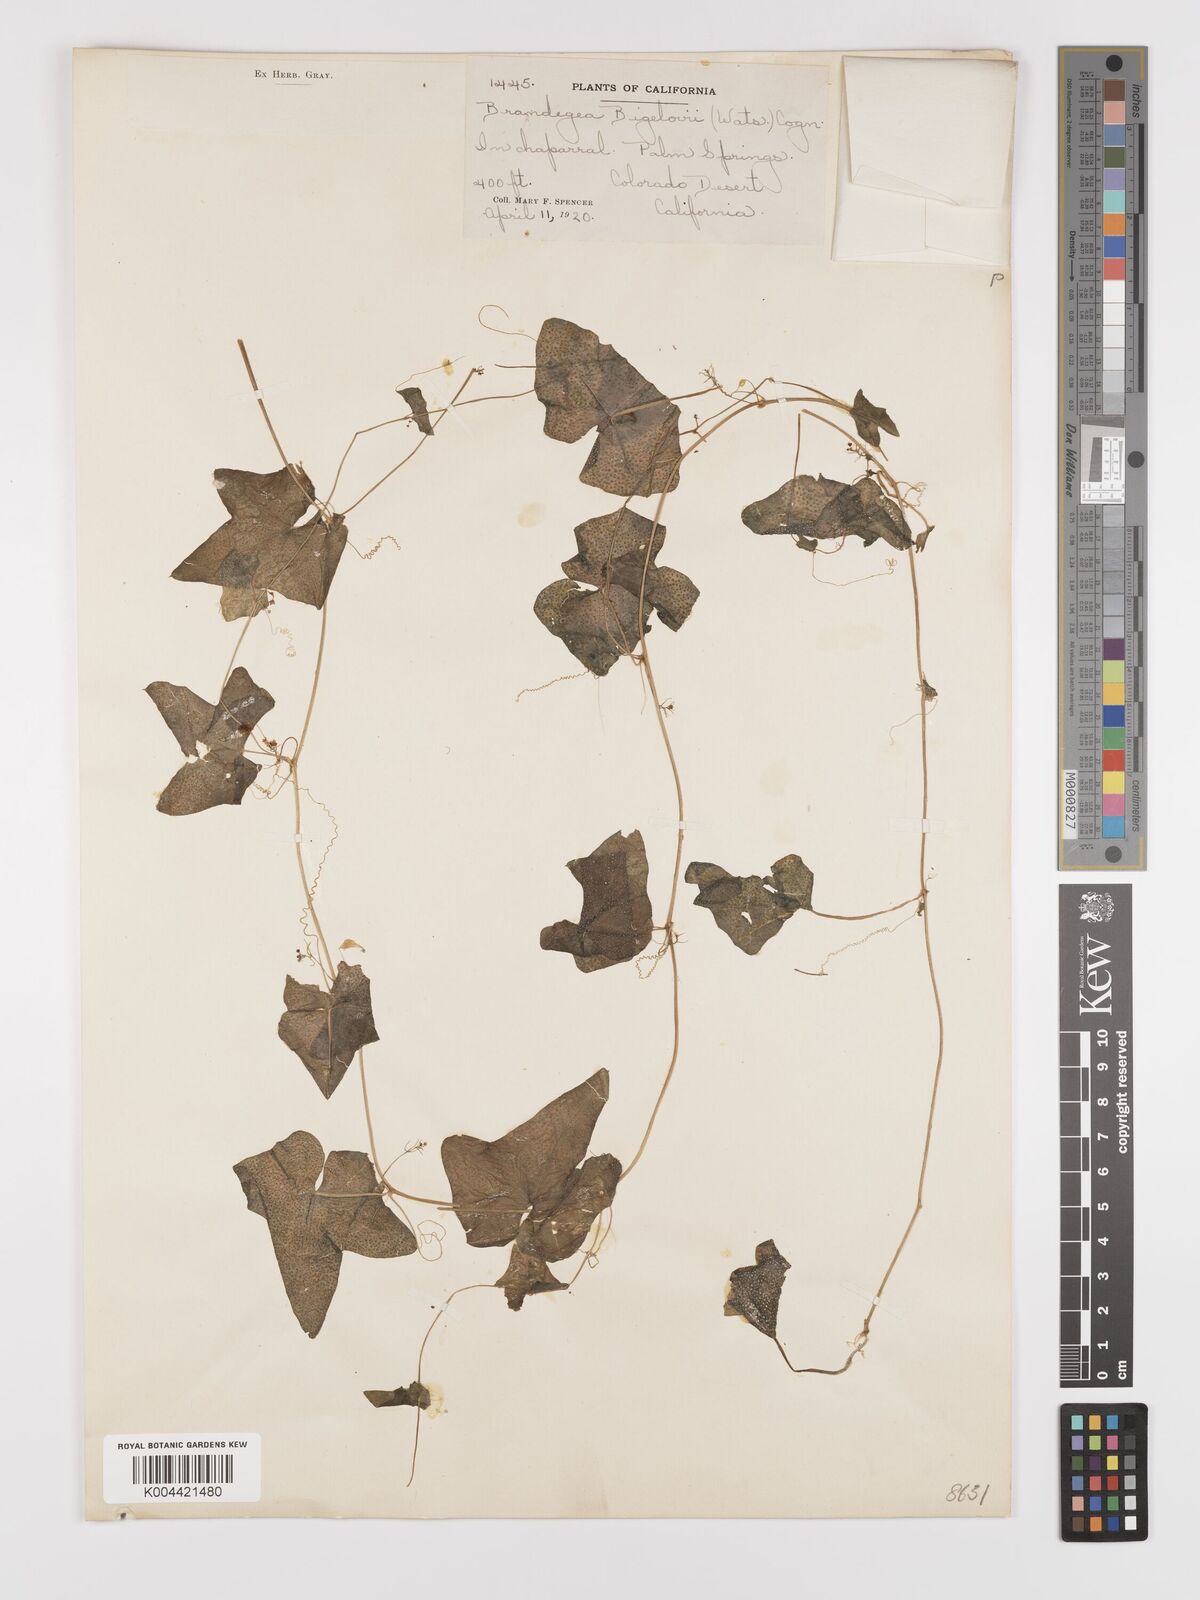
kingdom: Plantae
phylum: Tracheophyta
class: Magnoliopsida
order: Cucurbitales
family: Cucurbitaceae
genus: Echinopepon
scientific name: Echinopepon bigelovii
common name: Desert starvine
